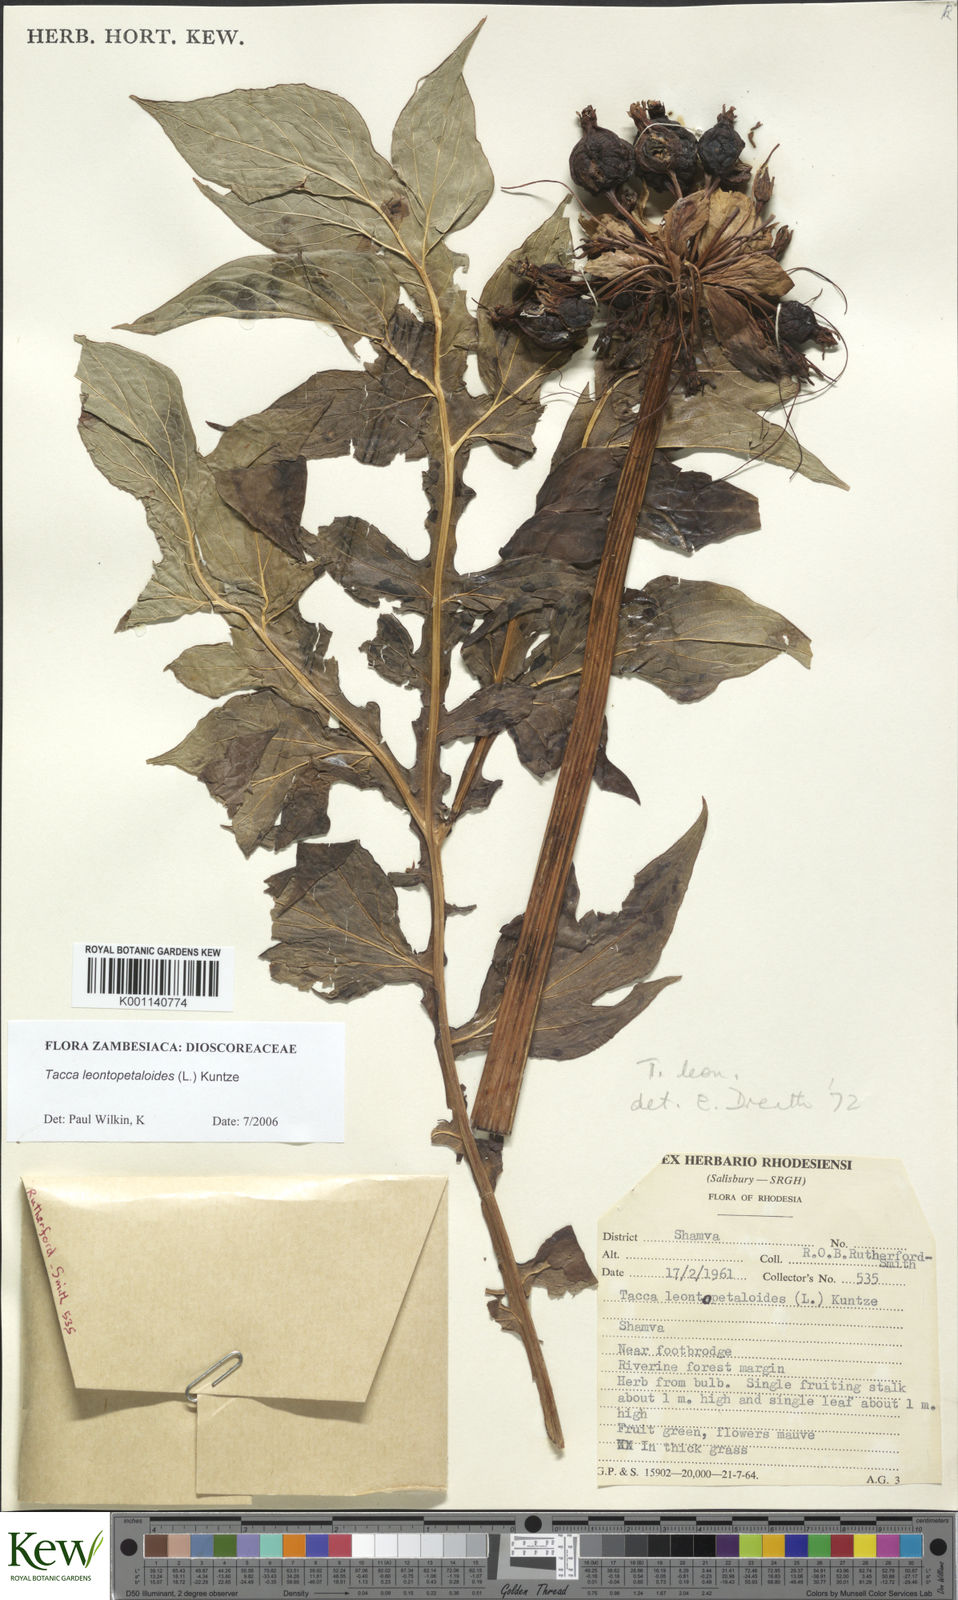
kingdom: Plantae
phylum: Tracheophyta
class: Liliopsida
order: Dioscoreales
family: Dioscoreaceae
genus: Tacca
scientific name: Tacca leontopetaloides
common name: Arrowroot
